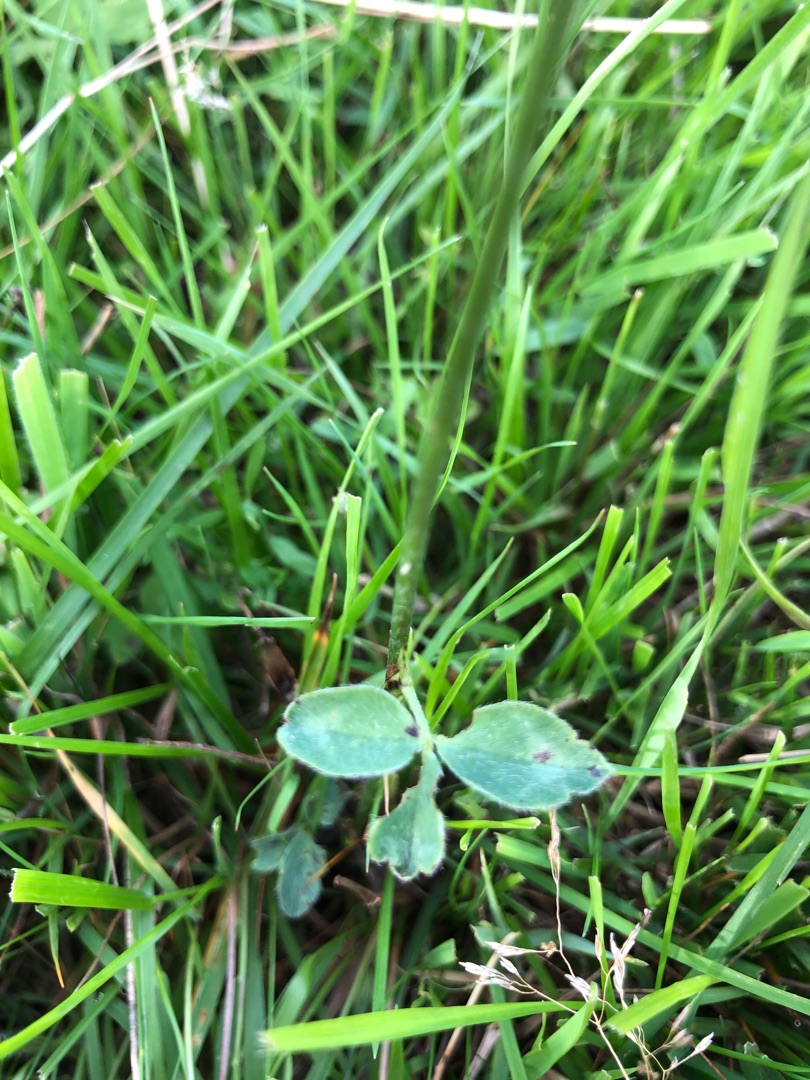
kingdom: Plantae
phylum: Tracheophyta
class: Magnoliopsida
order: Fabales
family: Fabaceae
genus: Trifolium
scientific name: Trifolium pratense
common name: Rød-kløver
